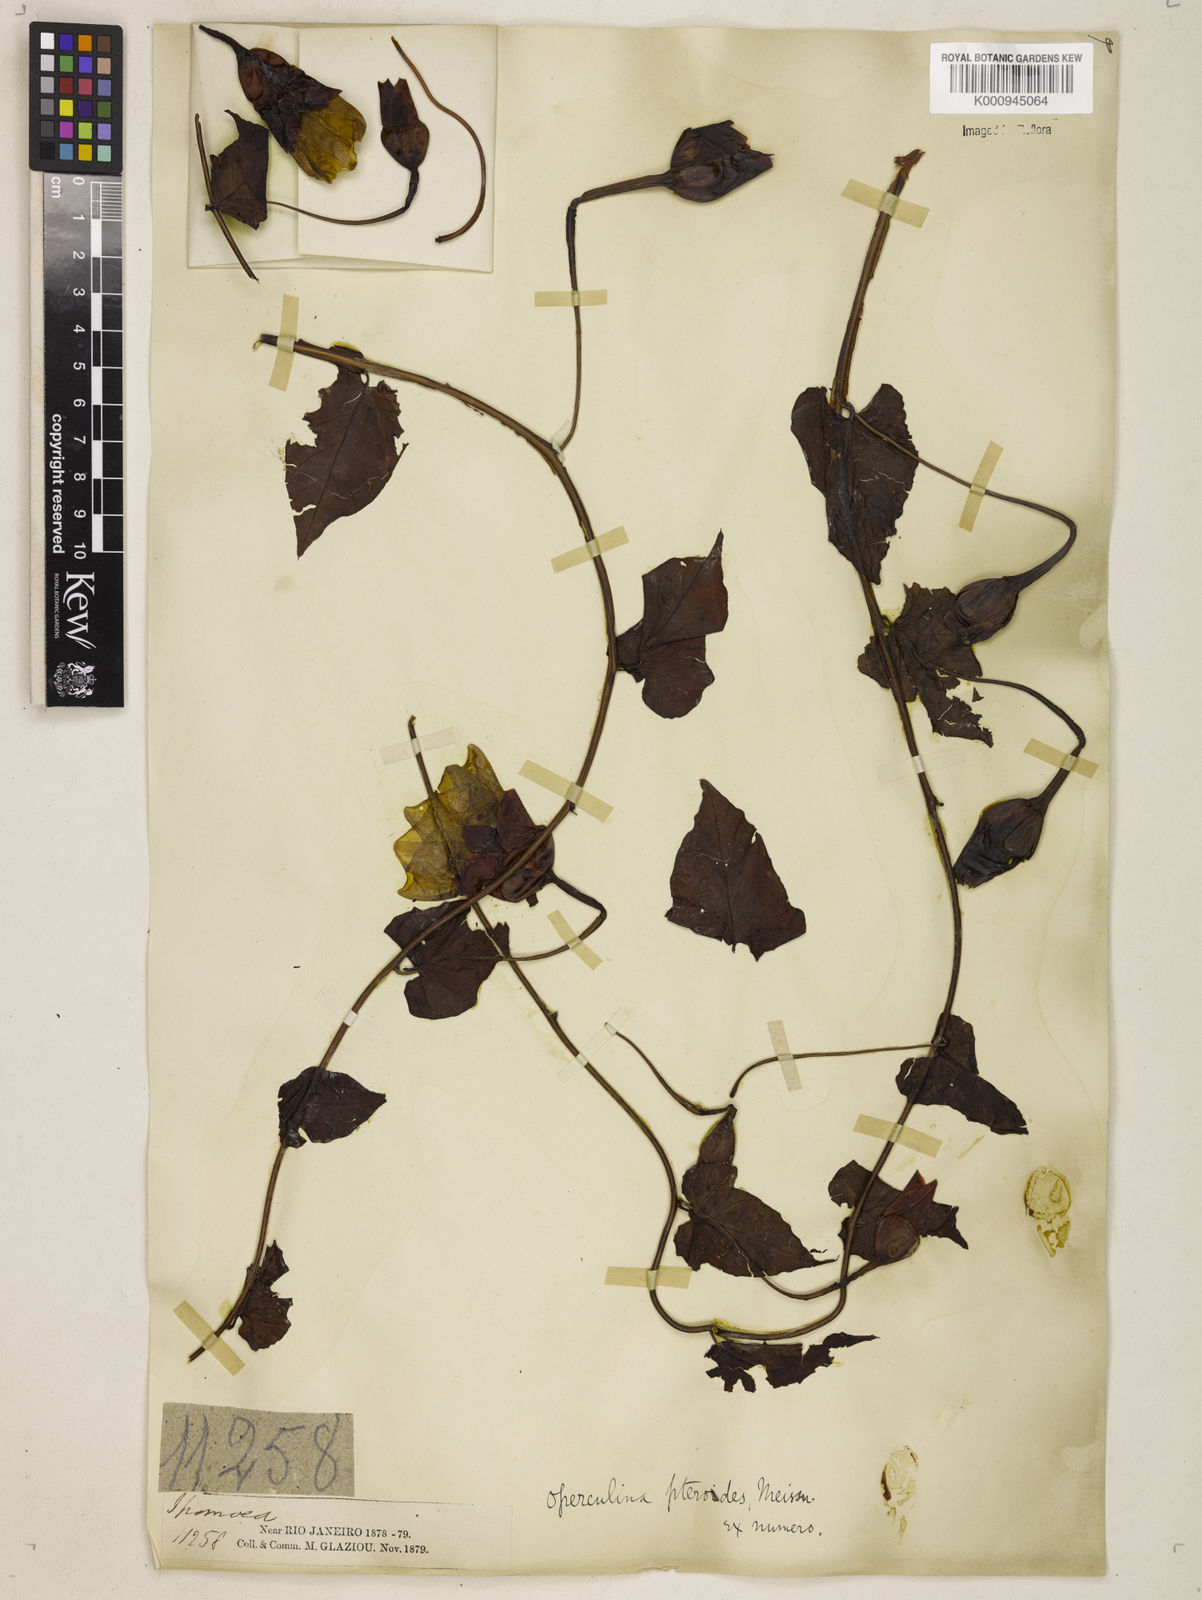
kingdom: Plantae
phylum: Tracheophyta
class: Magnoliopsida
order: Solanales
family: Convolvulaceae
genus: Operculina
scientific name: Operculina hamiltonii
